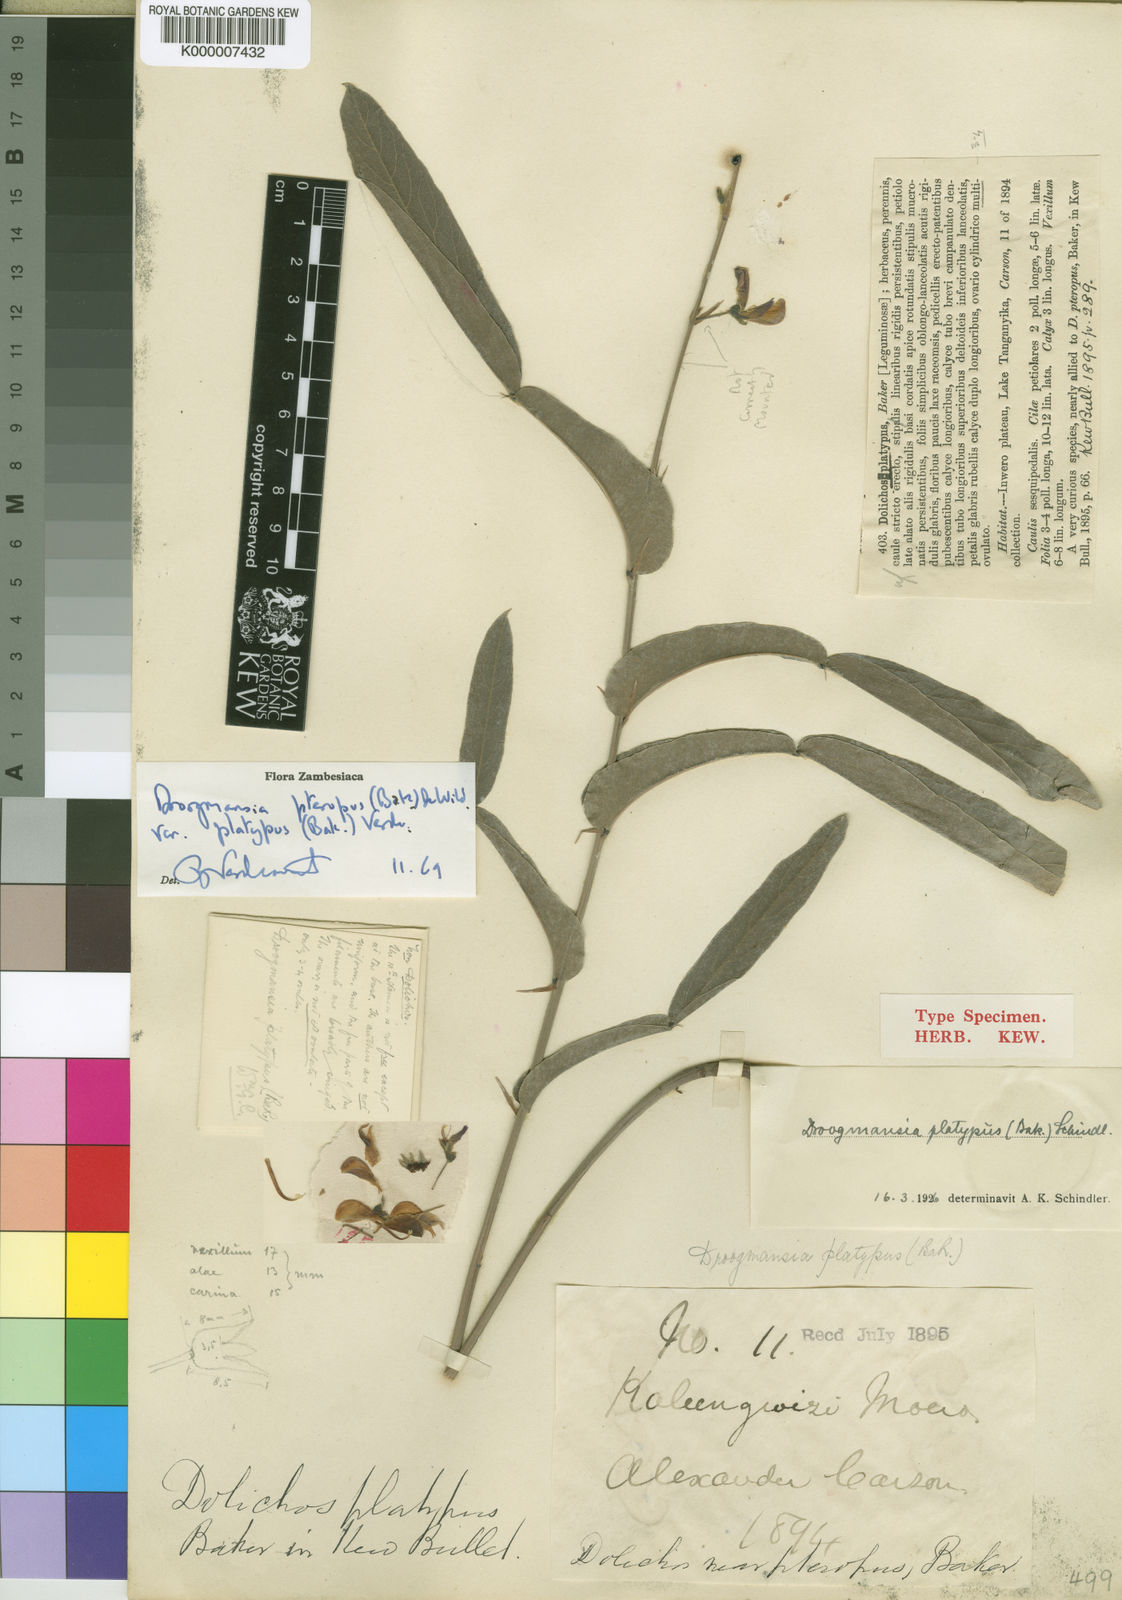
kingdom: Plantae
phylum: Tracheophyta
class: Magnoliopsida
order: Fabales
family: Fabaceae
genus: Droogmansia
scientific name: Droogmansia pteropus
